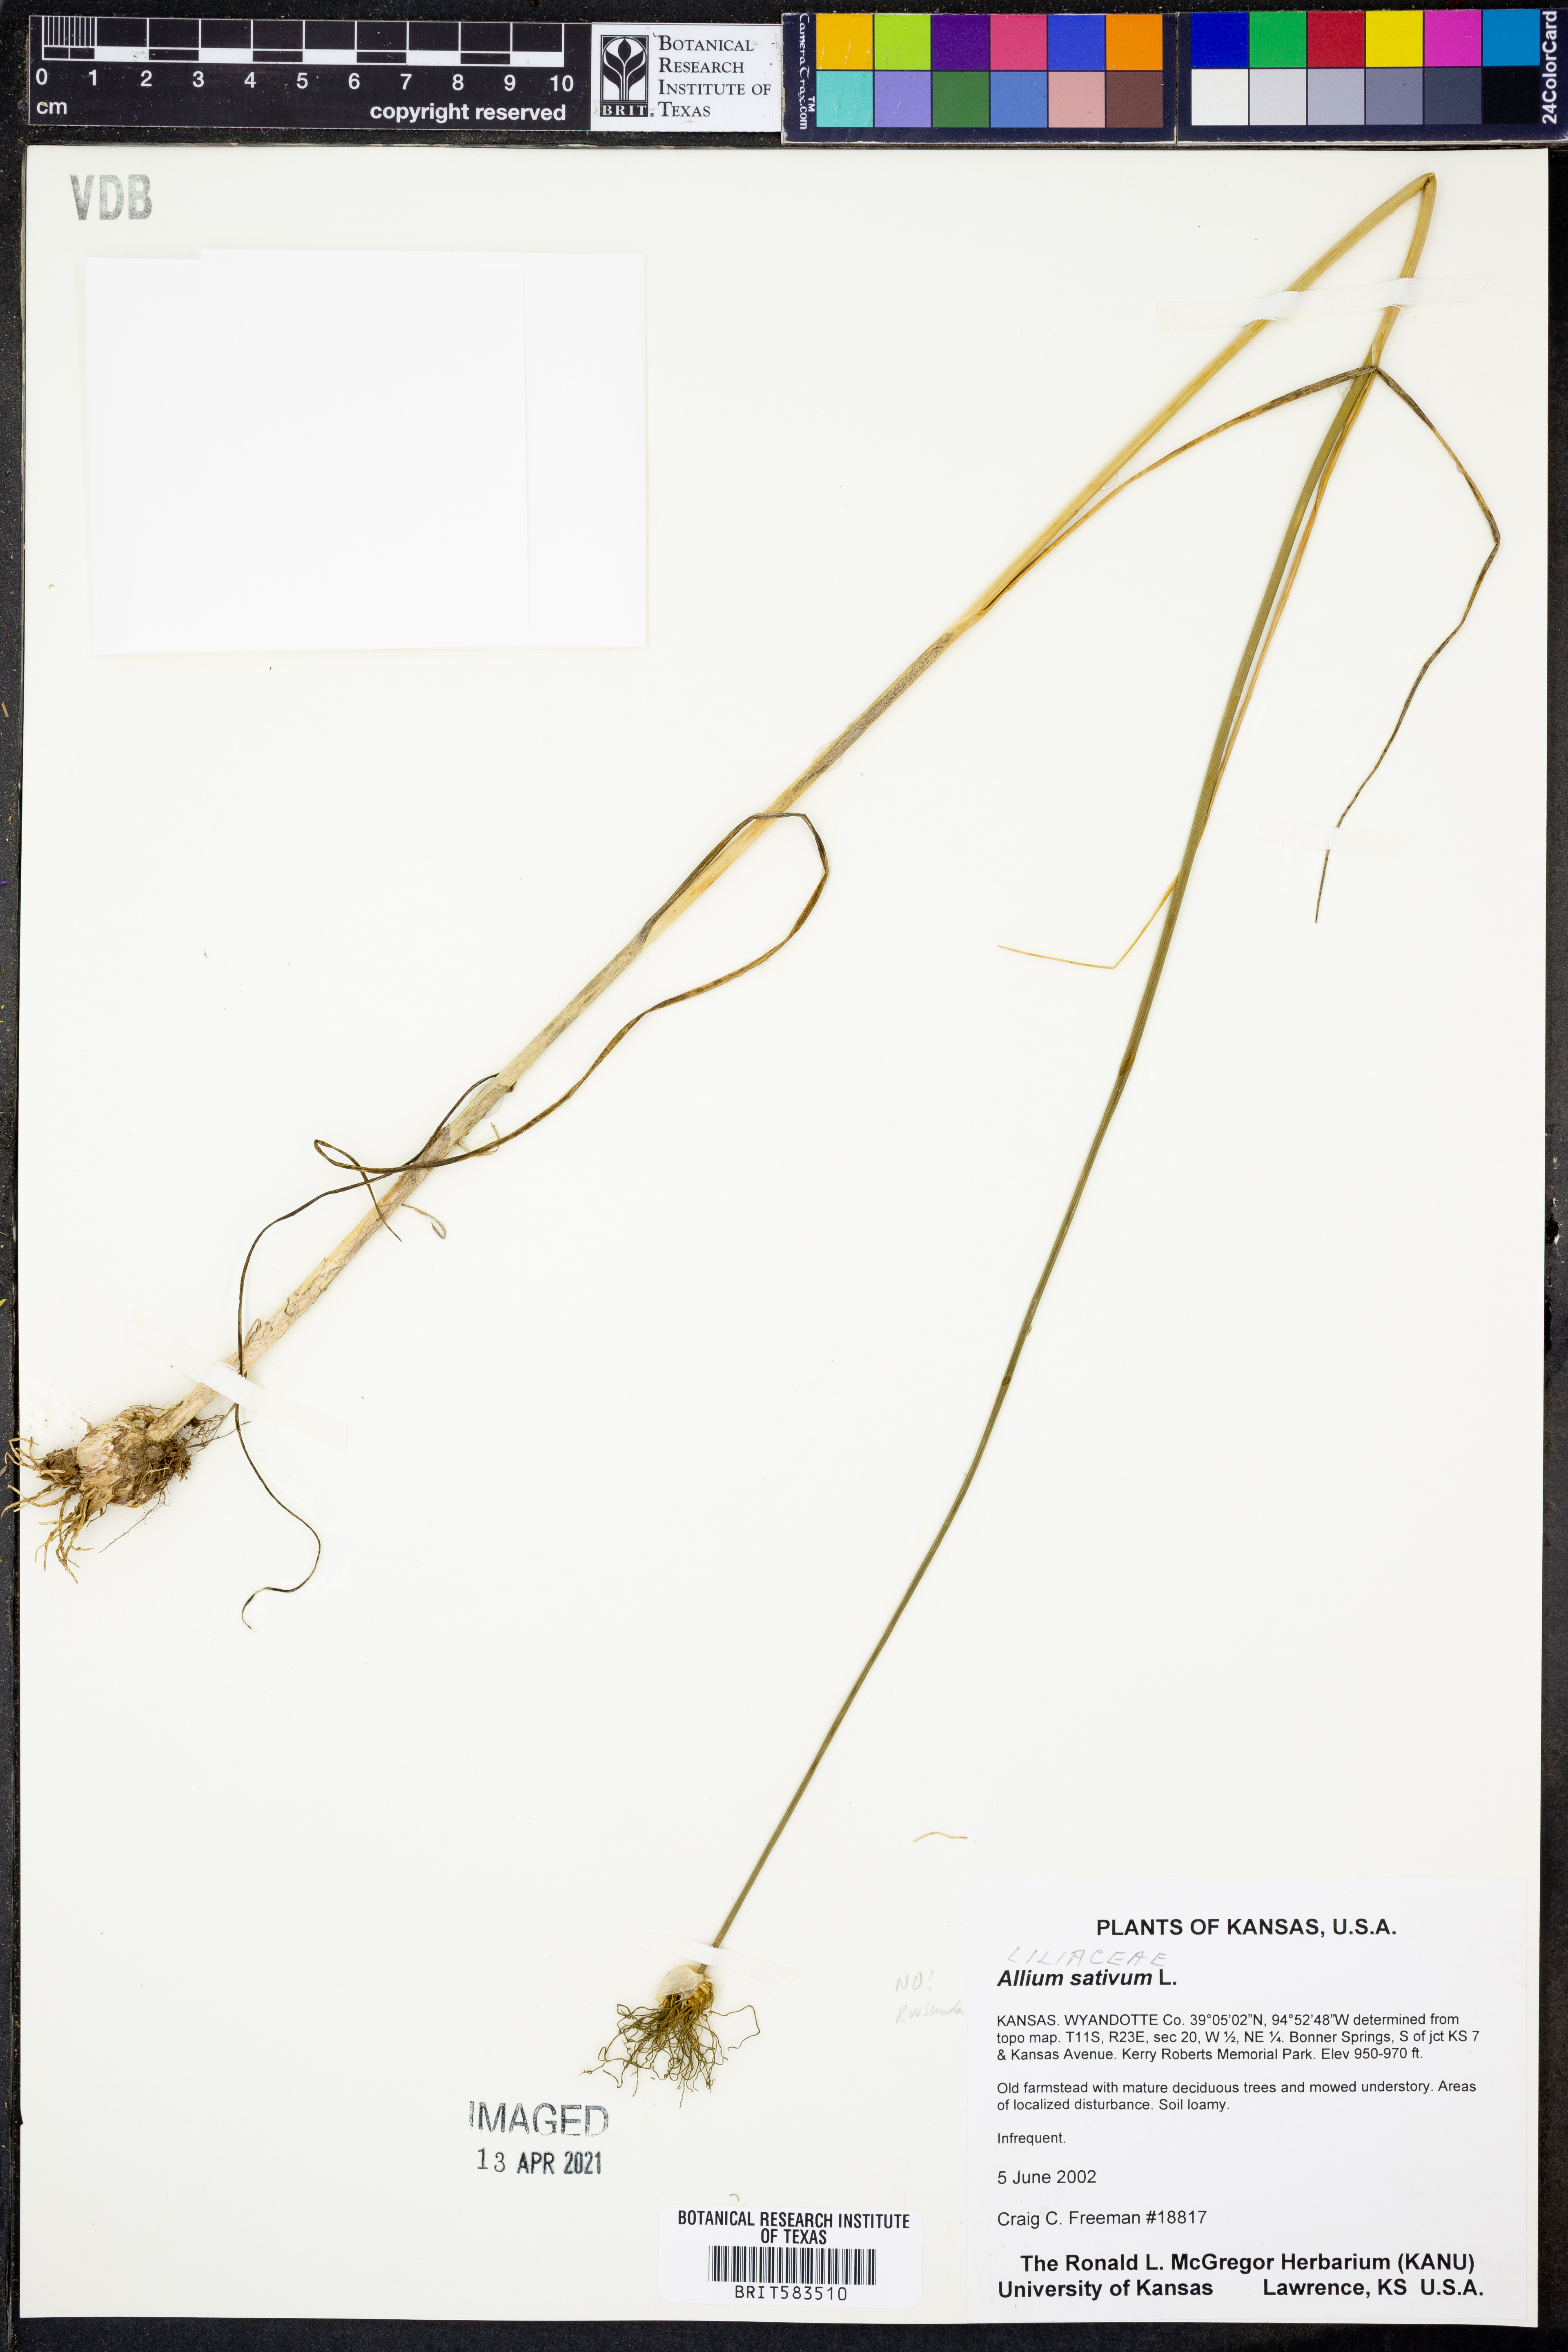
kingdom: Plantae
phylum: Tracheophyta
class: Liliopsida
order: Asparagales
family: Amaryllidaceae
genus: Allium
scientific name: Allium sativum
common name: Garlic
